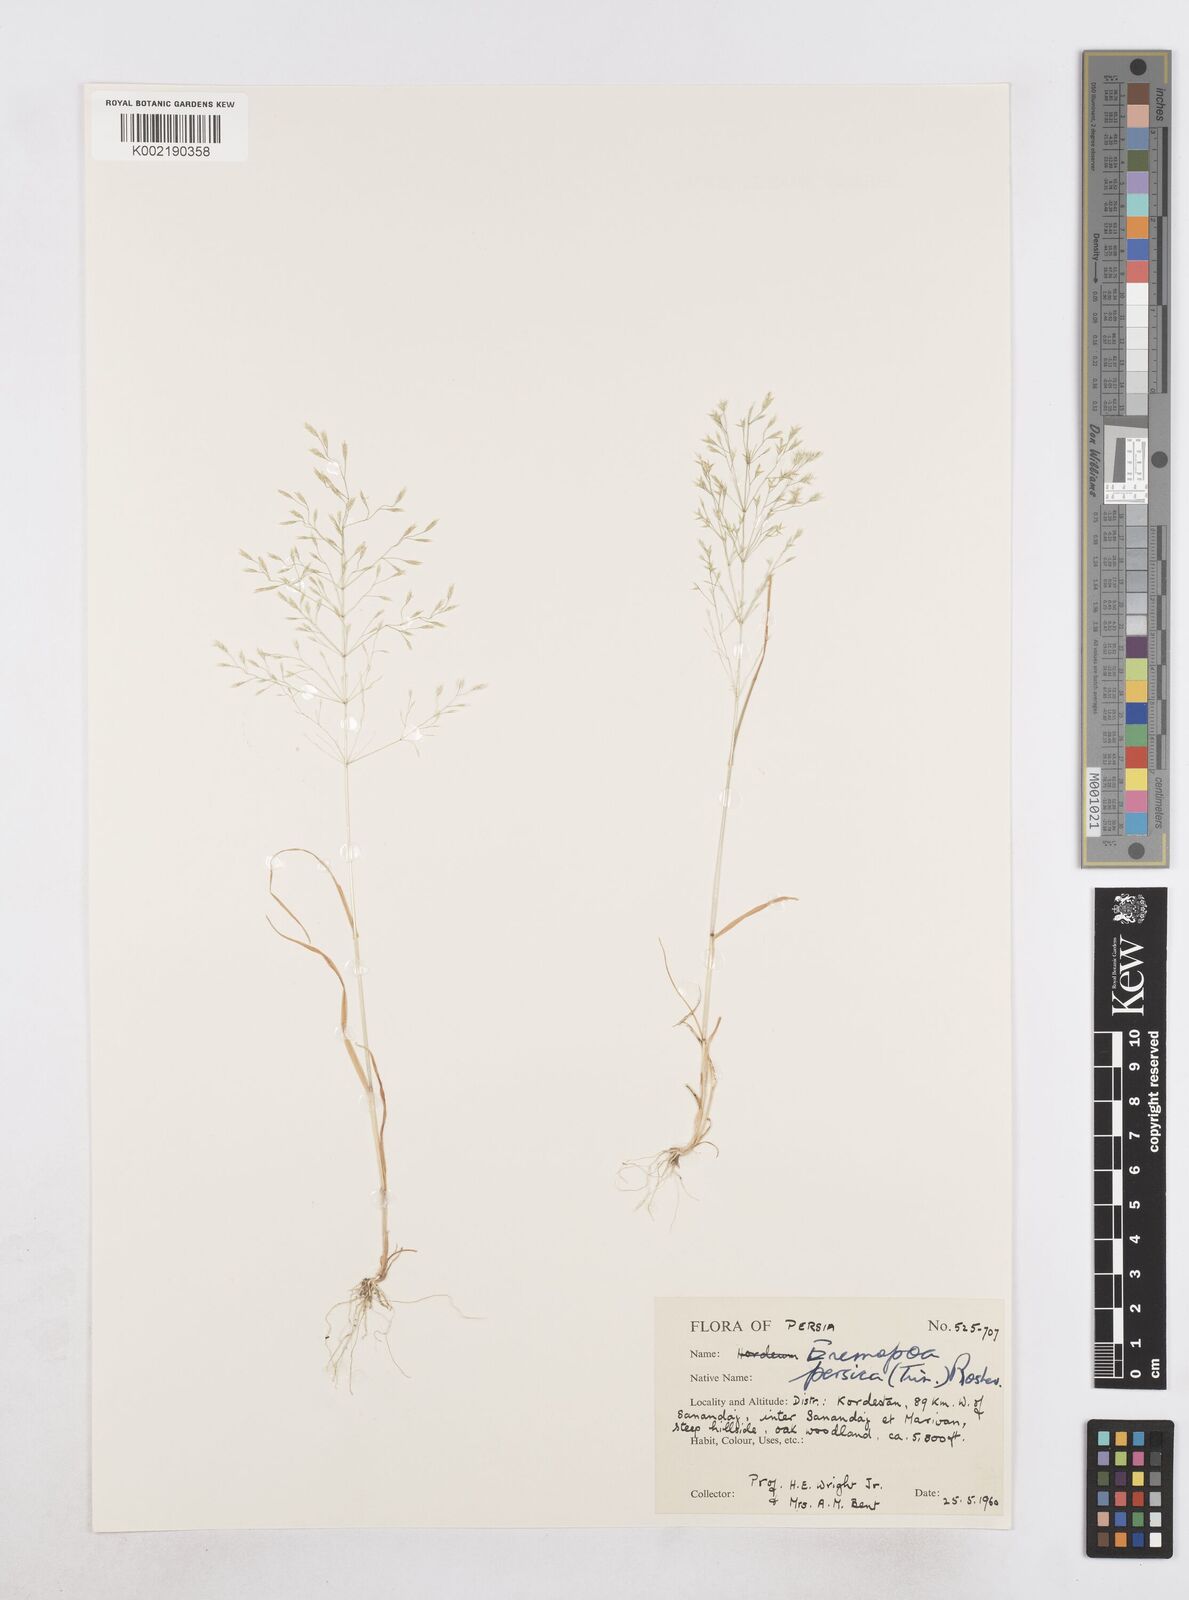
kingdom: Plantae
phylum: Tracheophyta
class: Liliopsida
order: Poales
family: Poaceae
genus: Poa
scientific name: Poa persica
